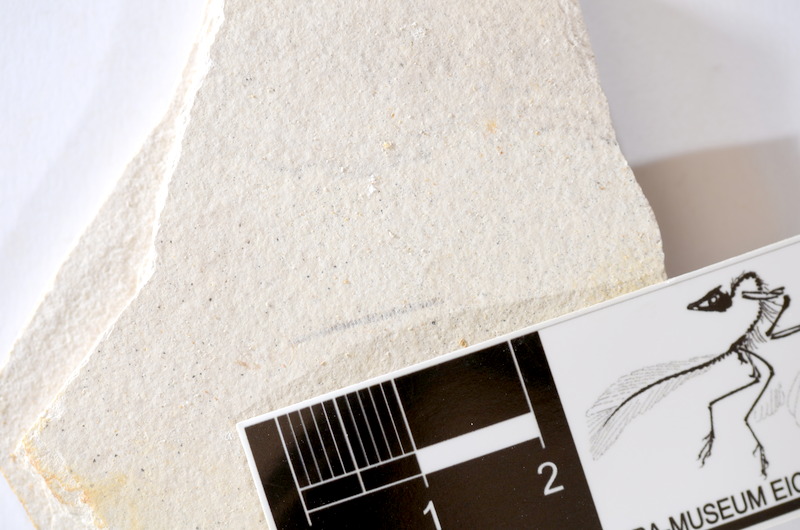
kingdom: Animalia
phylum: Chordata
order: Salmoniformes
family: Orthogonikleithridae
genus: Orthogonikleithrus
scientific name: Orthogonikleithrus hoelli
